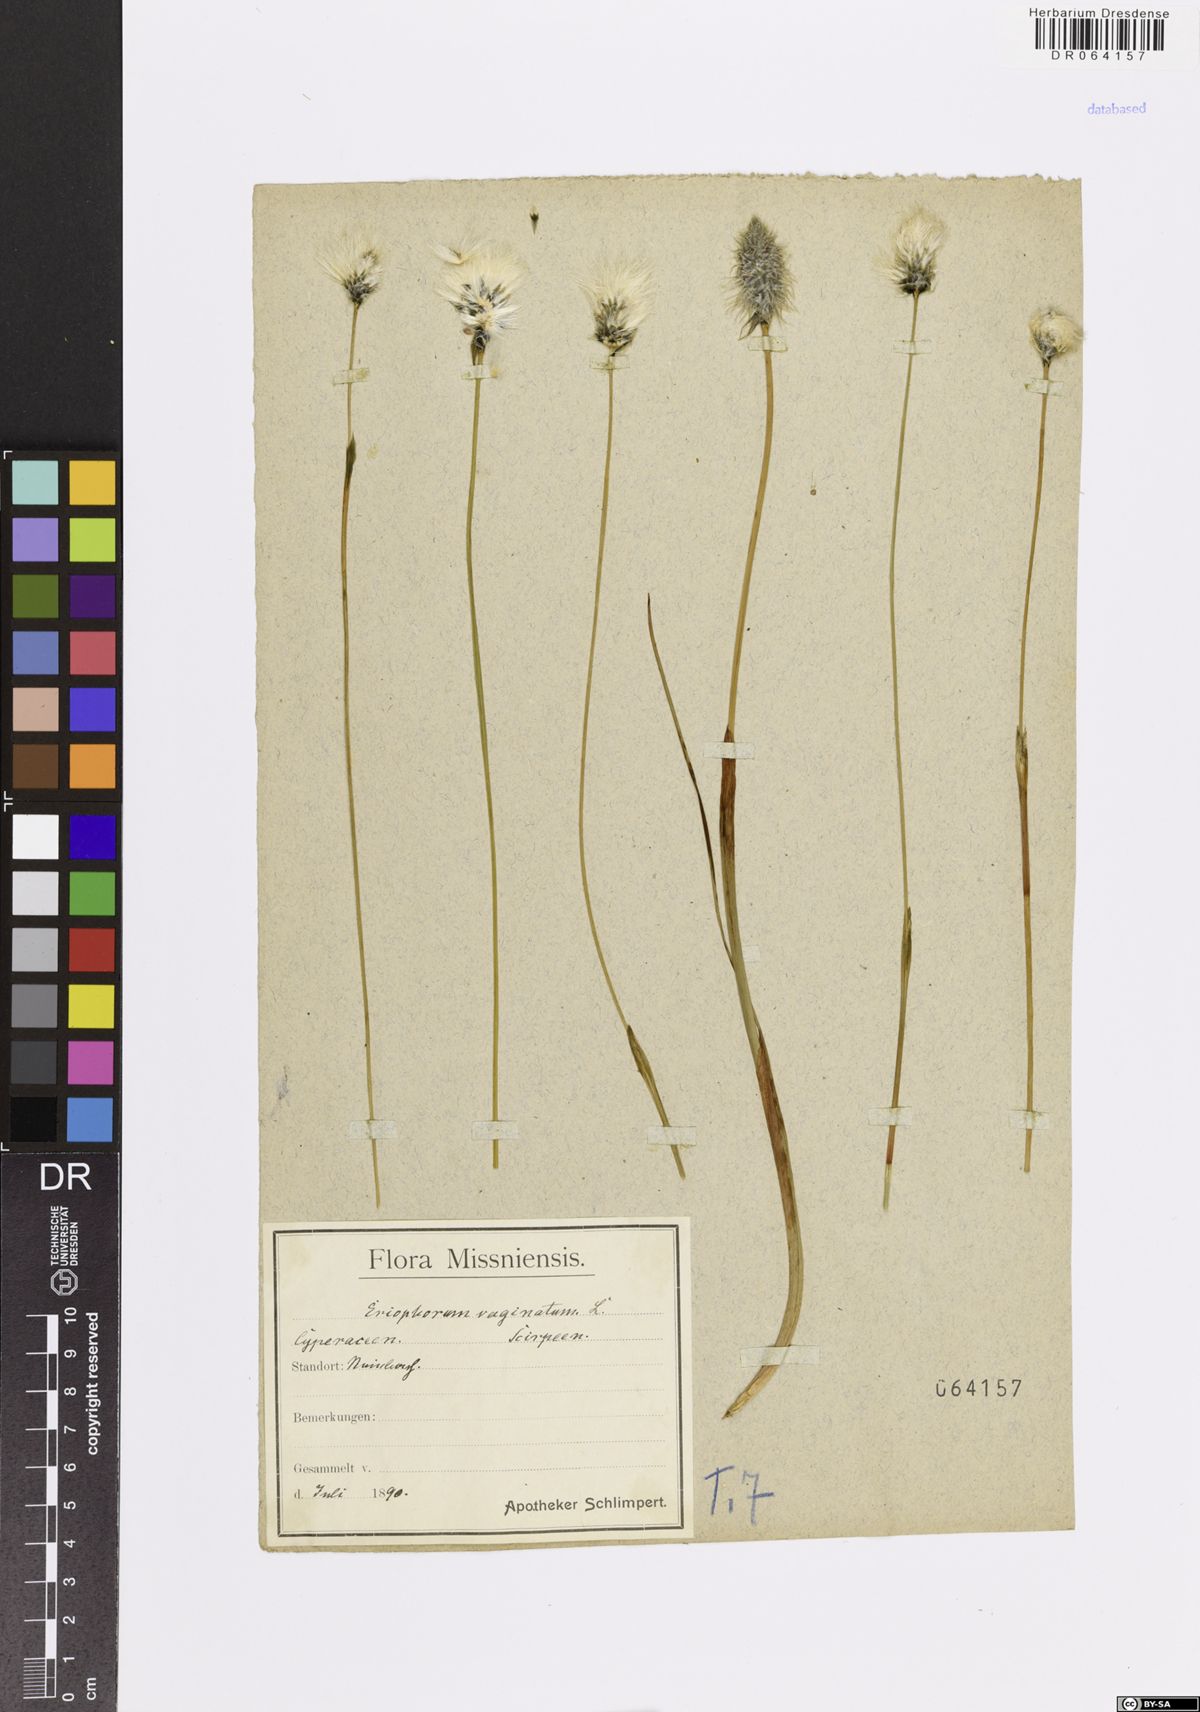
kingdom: Plantae
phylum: Tracheophyta
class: Liliopsida
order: Poales
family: Cyperaceae
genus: Eriophorum
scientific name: Eriophorum vaginatum
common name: Hare's-tail cottongrass
